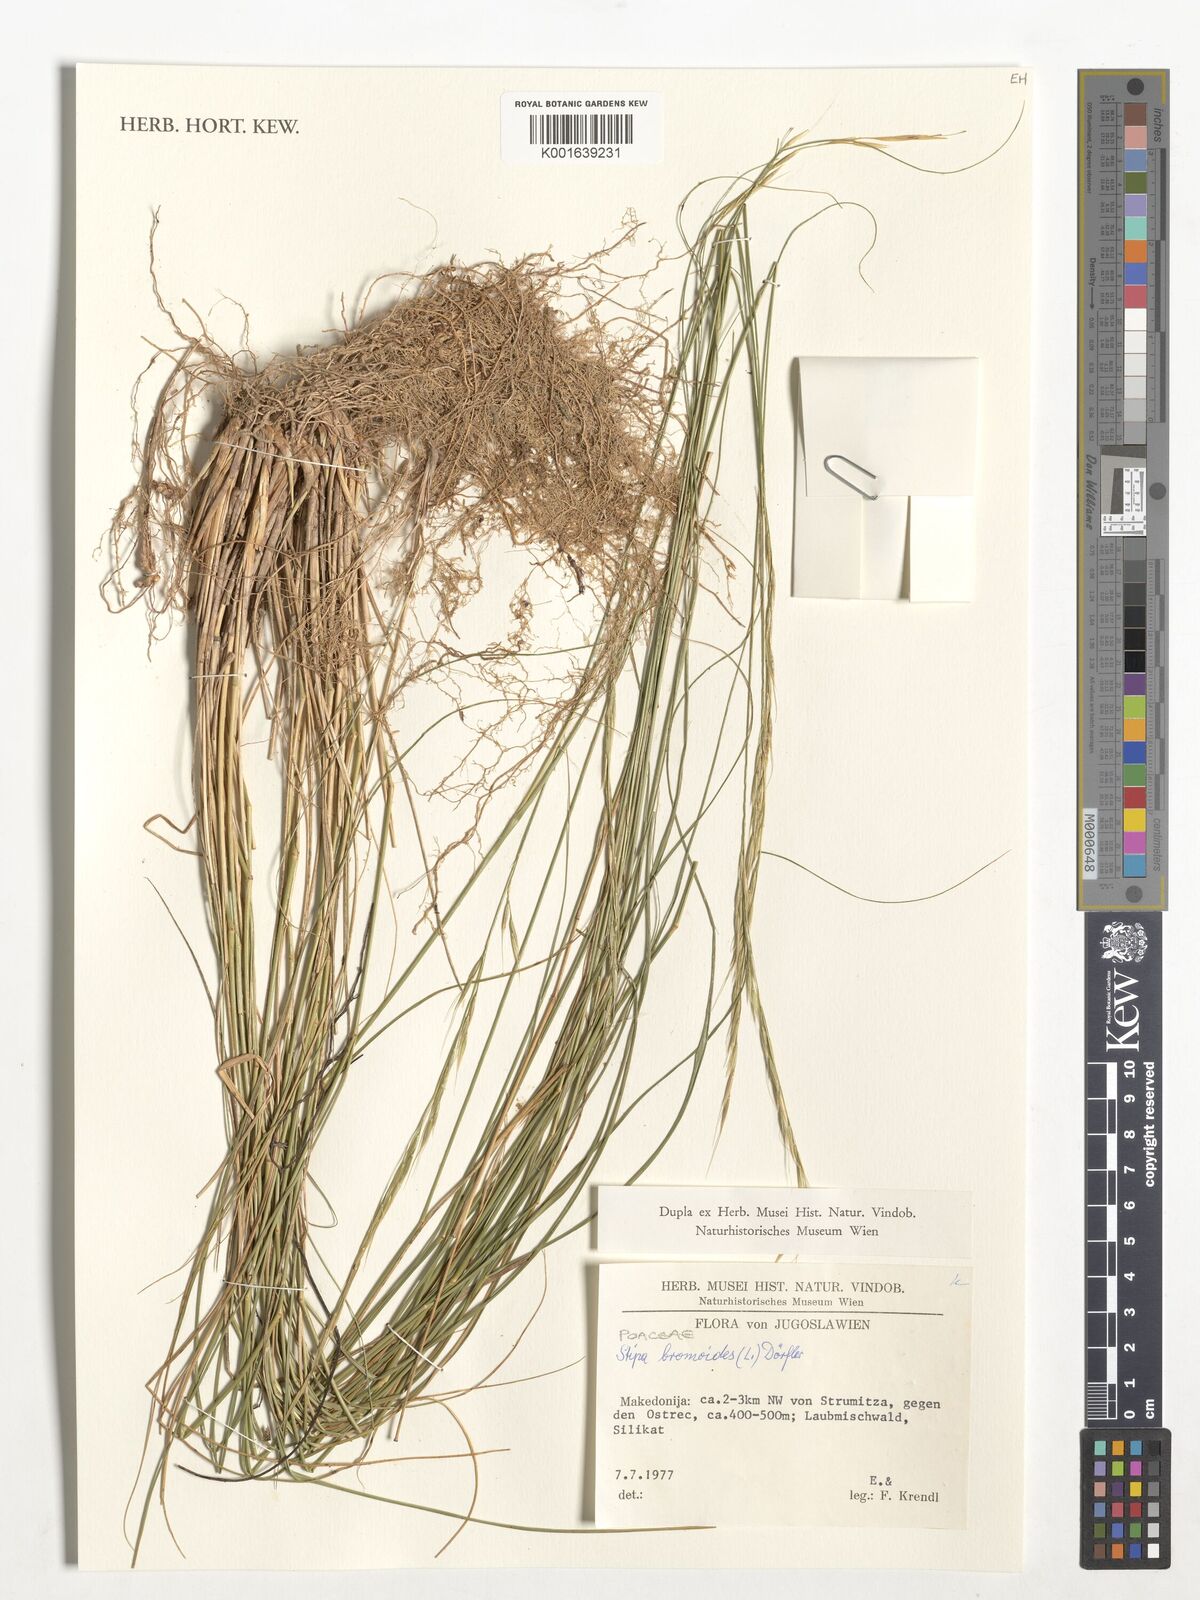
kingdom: Plantae
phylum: Tracheophyta
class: Liliopsida
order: Poales
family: Poaceae
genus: Achnatherum
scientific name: Achnatherum bromoides
